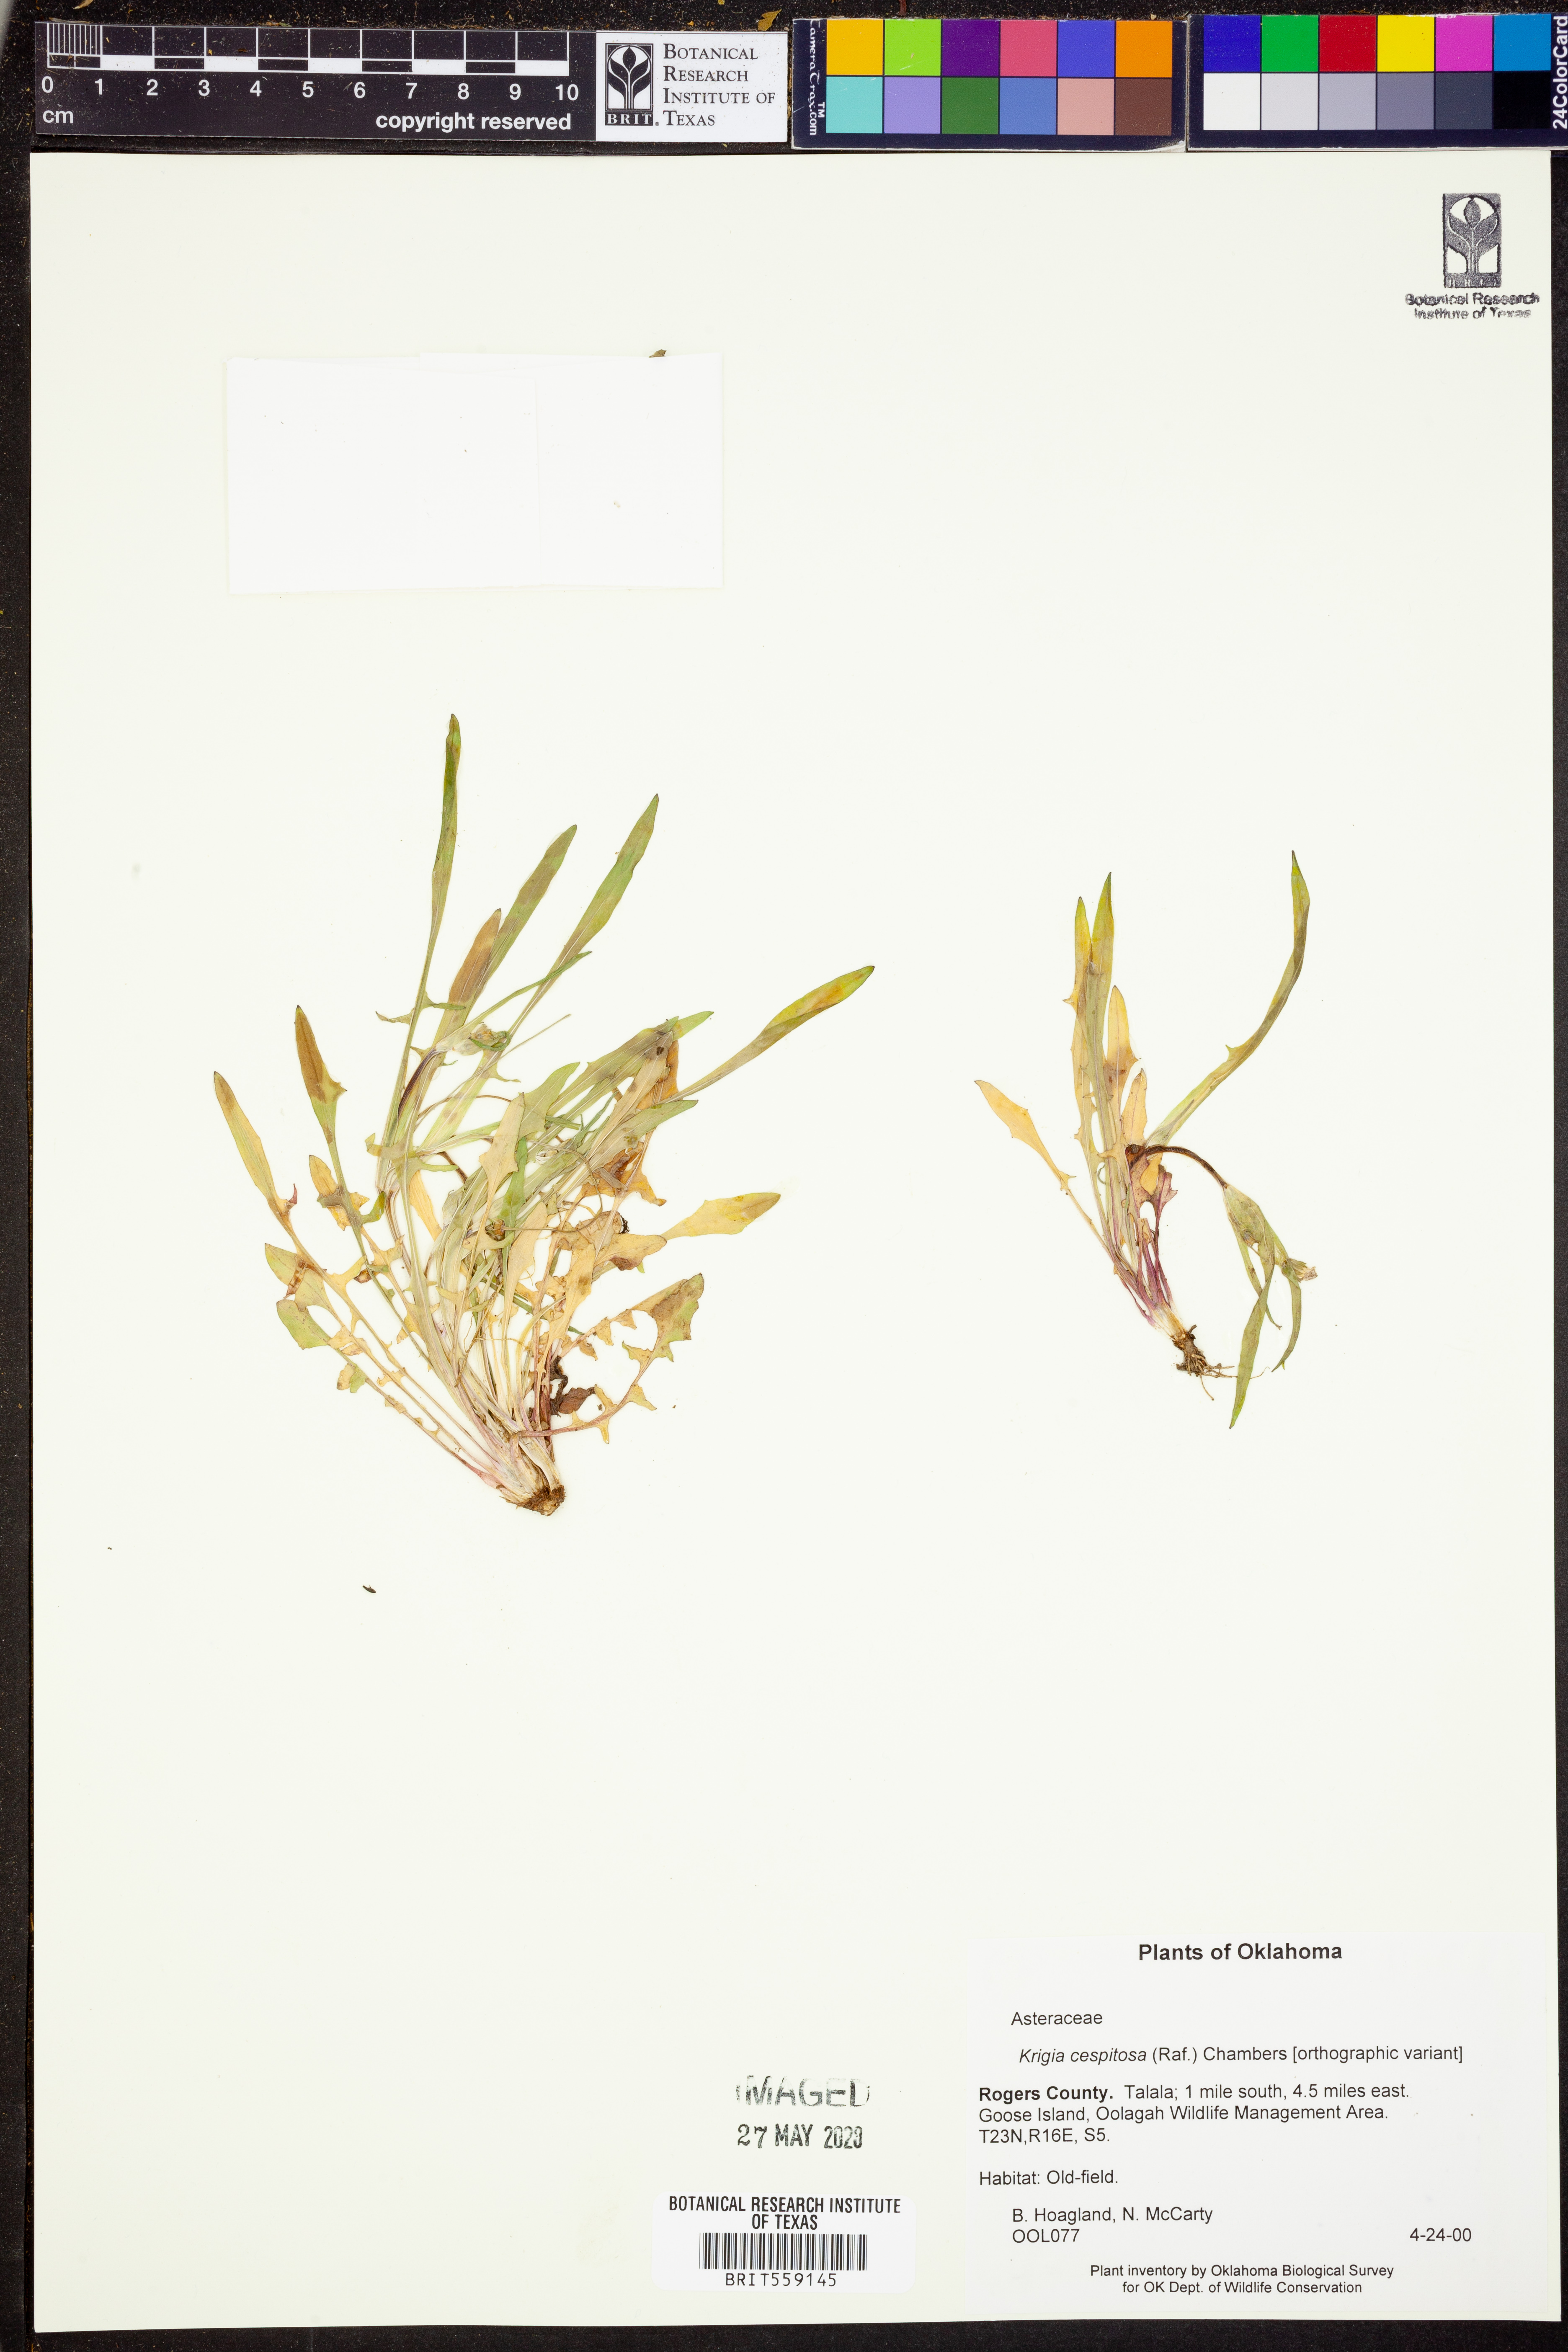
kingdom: Plantae
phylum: Tracheophyta
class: Magnoliopsida
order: Asterales
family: Asteraceae
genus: Krigia
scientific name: Krigia cespitosa
